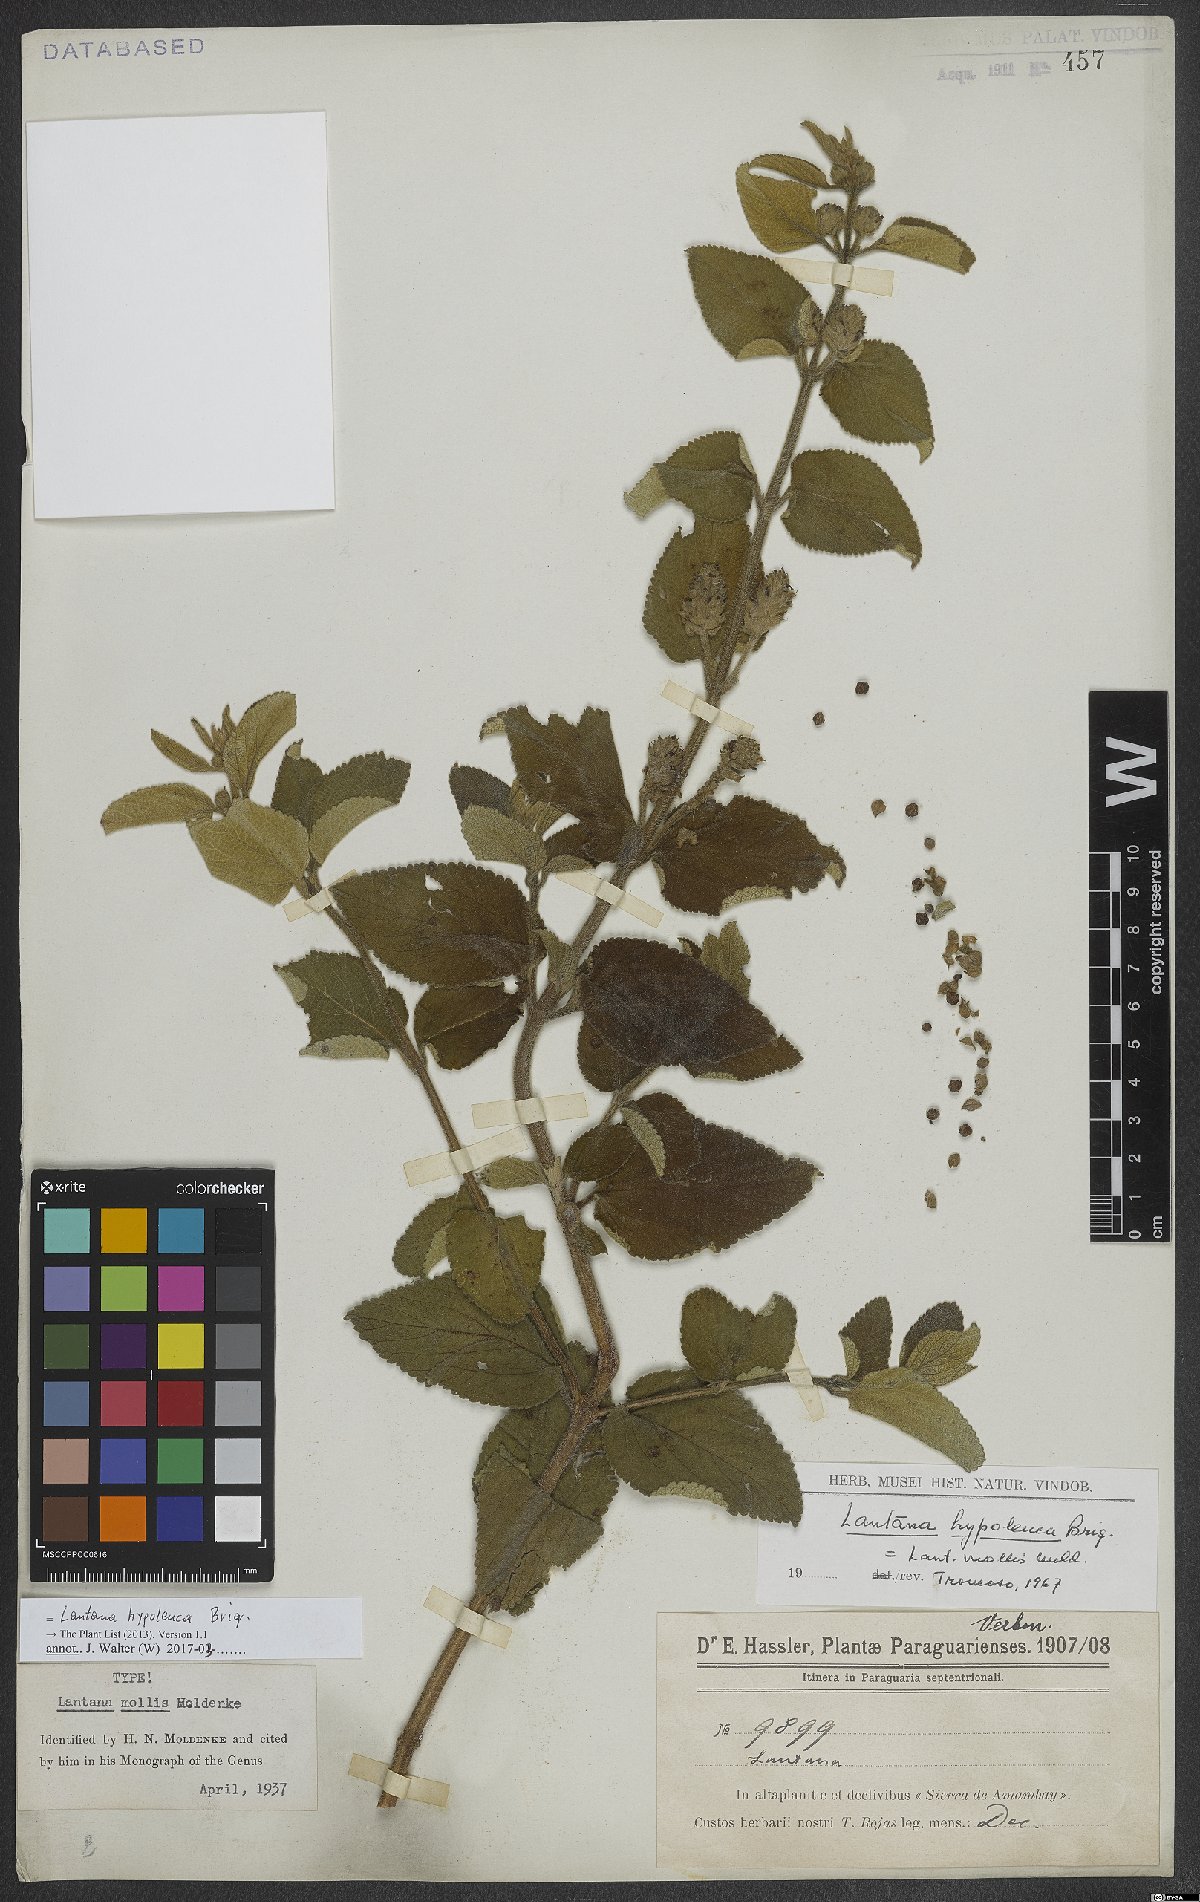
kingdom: Plantae
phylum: Tracheophyta
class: Magnoliopsida
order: Lamiales
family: Verbenaceae
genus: Lantana
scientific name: Lantana hypoleuca
